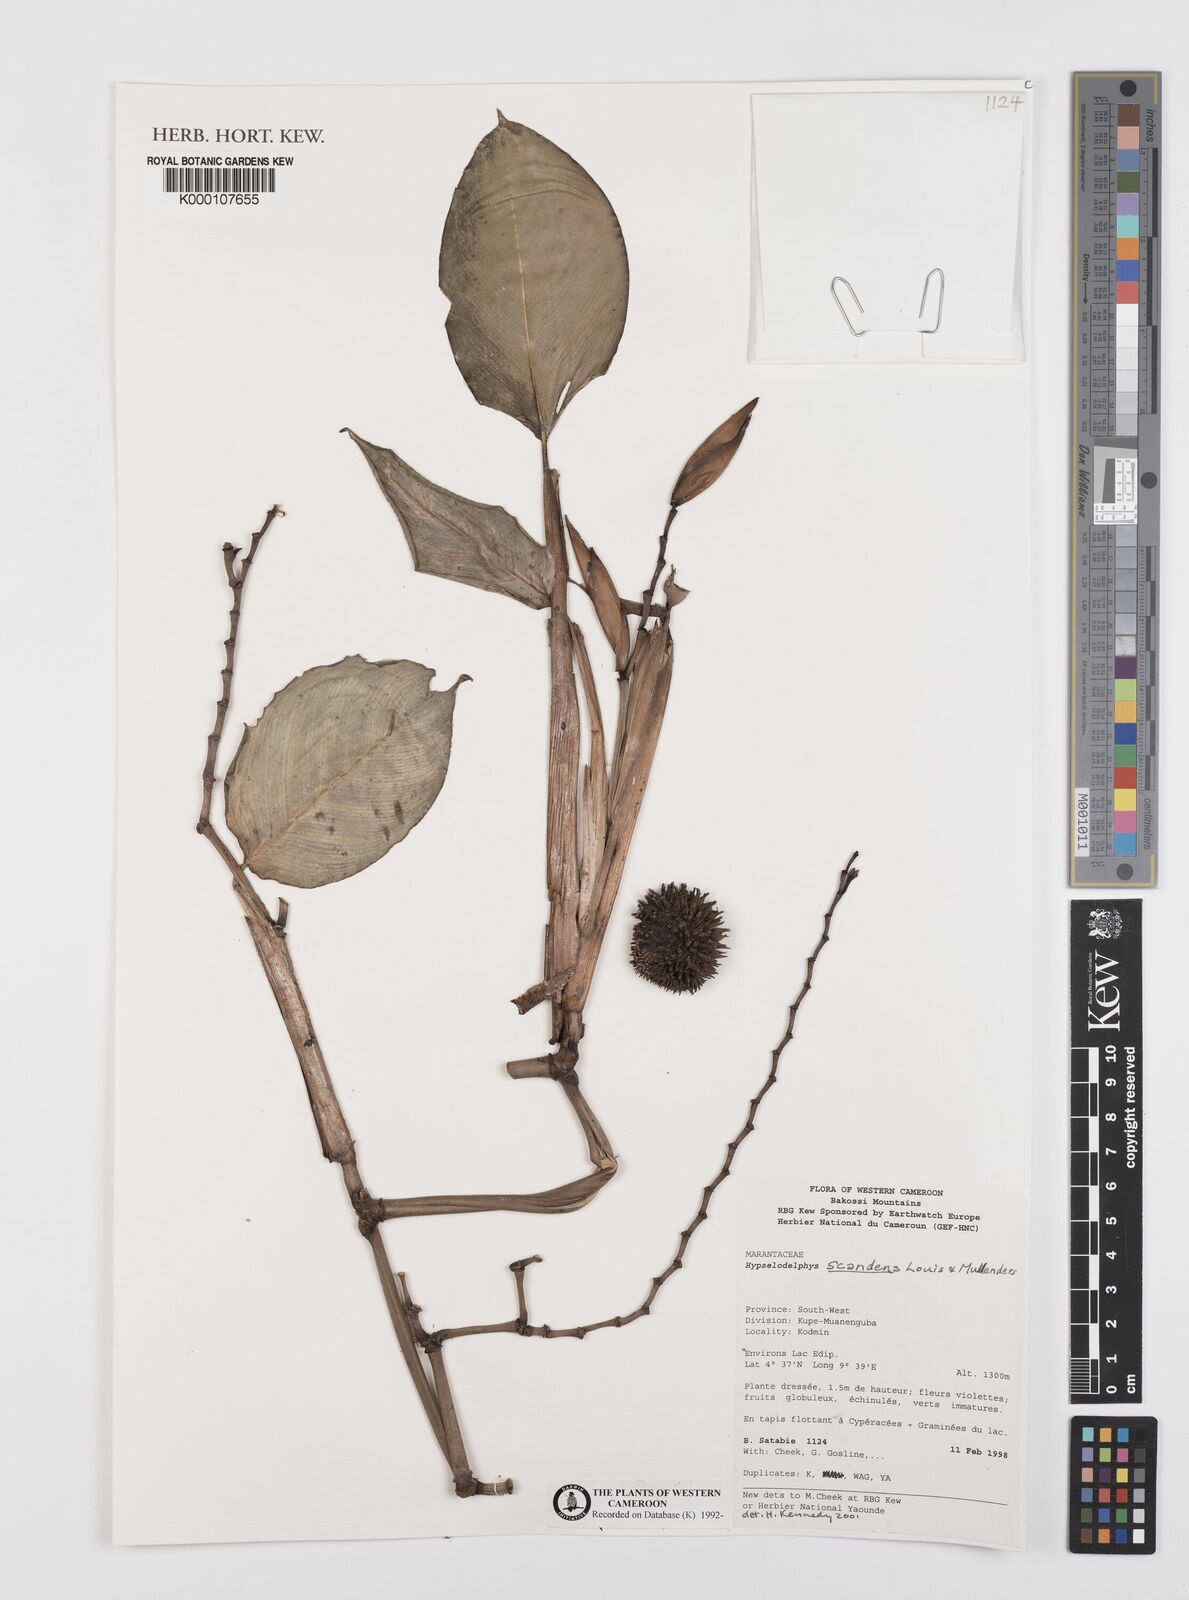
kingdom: Plantae
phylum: Tracheophyta
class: Liliopsida
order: Zingiberales
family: Marantaceae
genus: Hypselodelphys
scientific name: Hypselodelphys scandens
